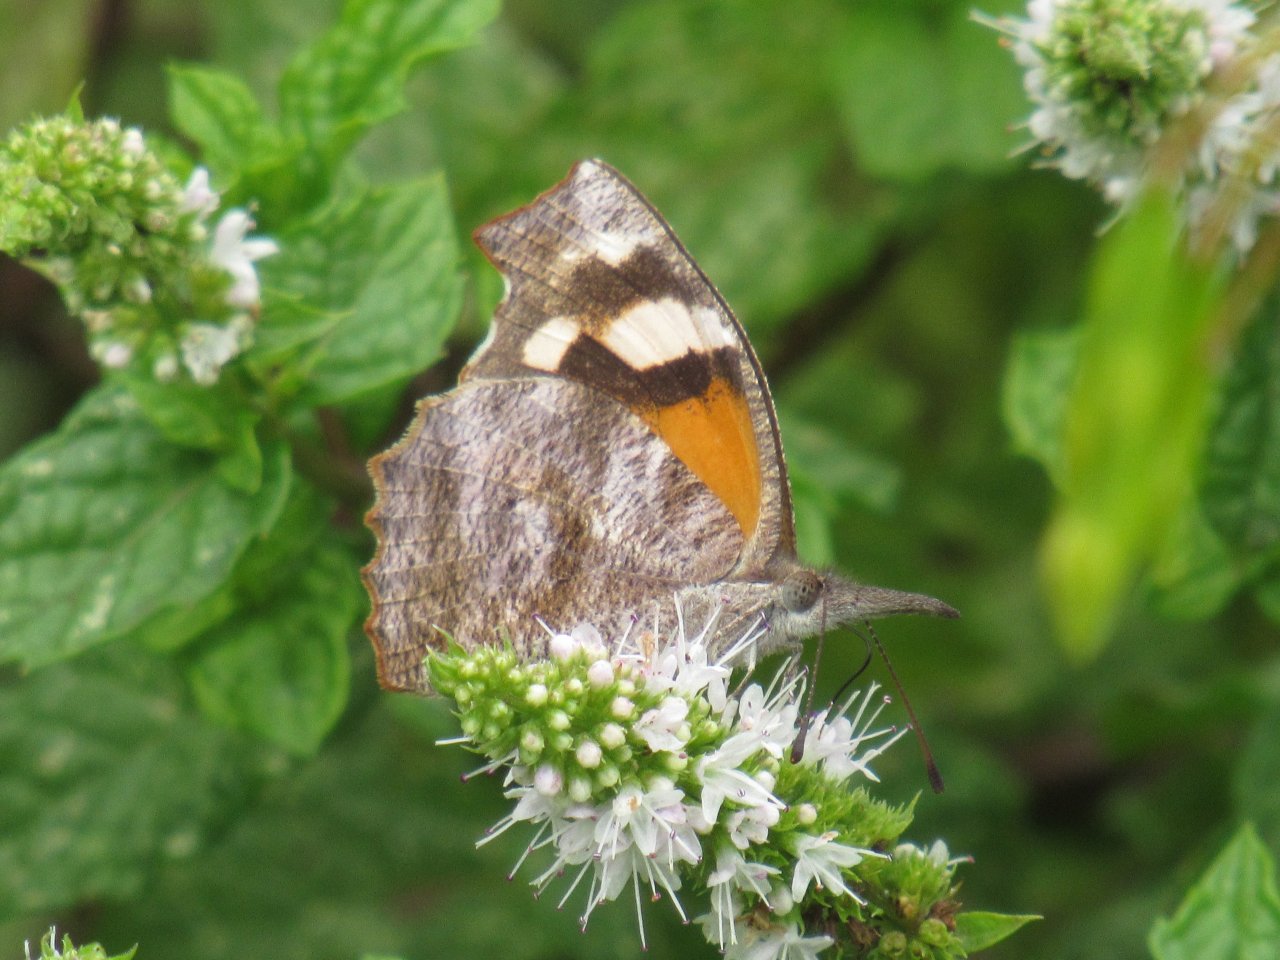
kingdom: Animalia
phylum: Arthropoda
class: Insecta
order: Lepidoptera
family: Nymphalidae
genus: Libytheana
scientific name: Libytheana carinenta
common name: American Snout
